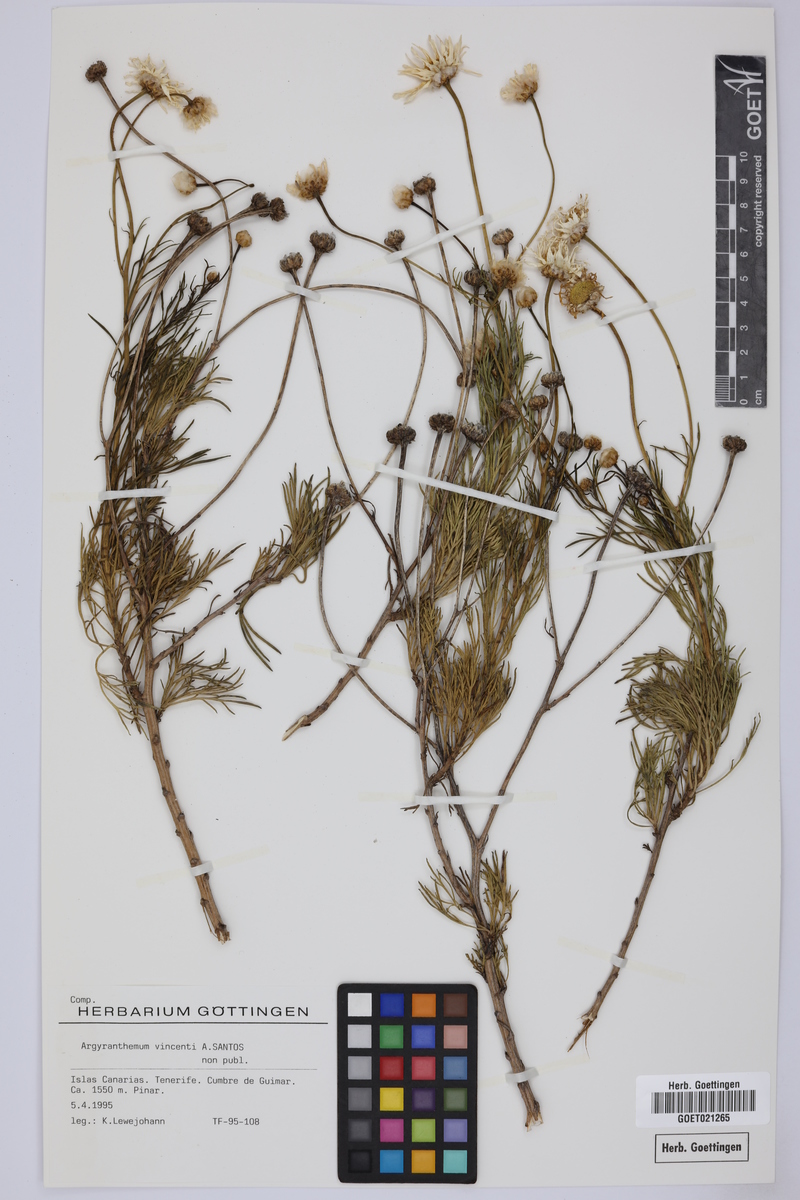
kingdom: Plantae
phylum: Tracheophyta
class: Magnoliopsida
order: Asterales
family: Asteraceae
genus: Argyranthemum
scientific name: Argyranthemum vincentii
